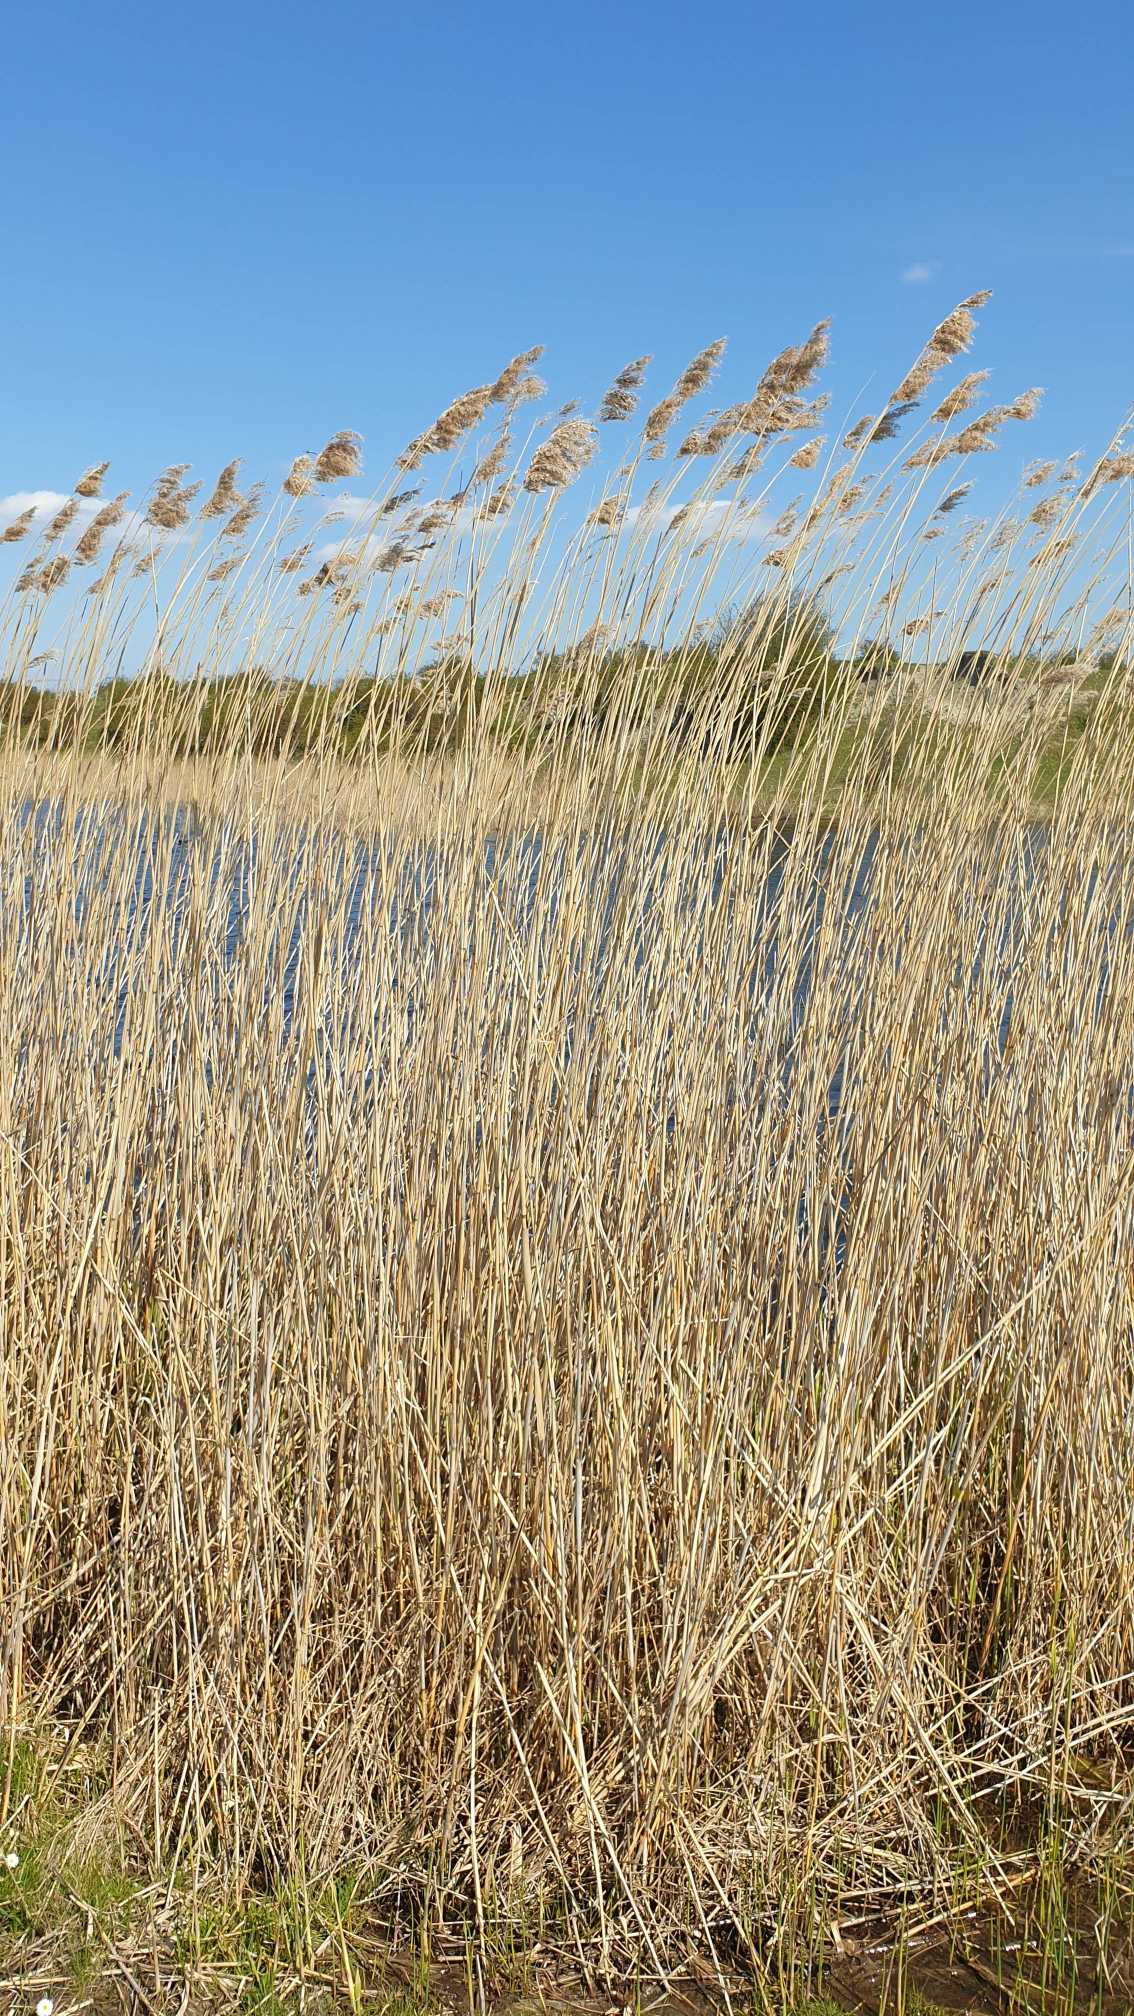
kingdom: Plantae
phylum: Tracheophyta
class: Liliopsida
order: Poales
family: Poaceae
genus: Phragmites
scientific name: Phragmites australis
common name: Tagrør
